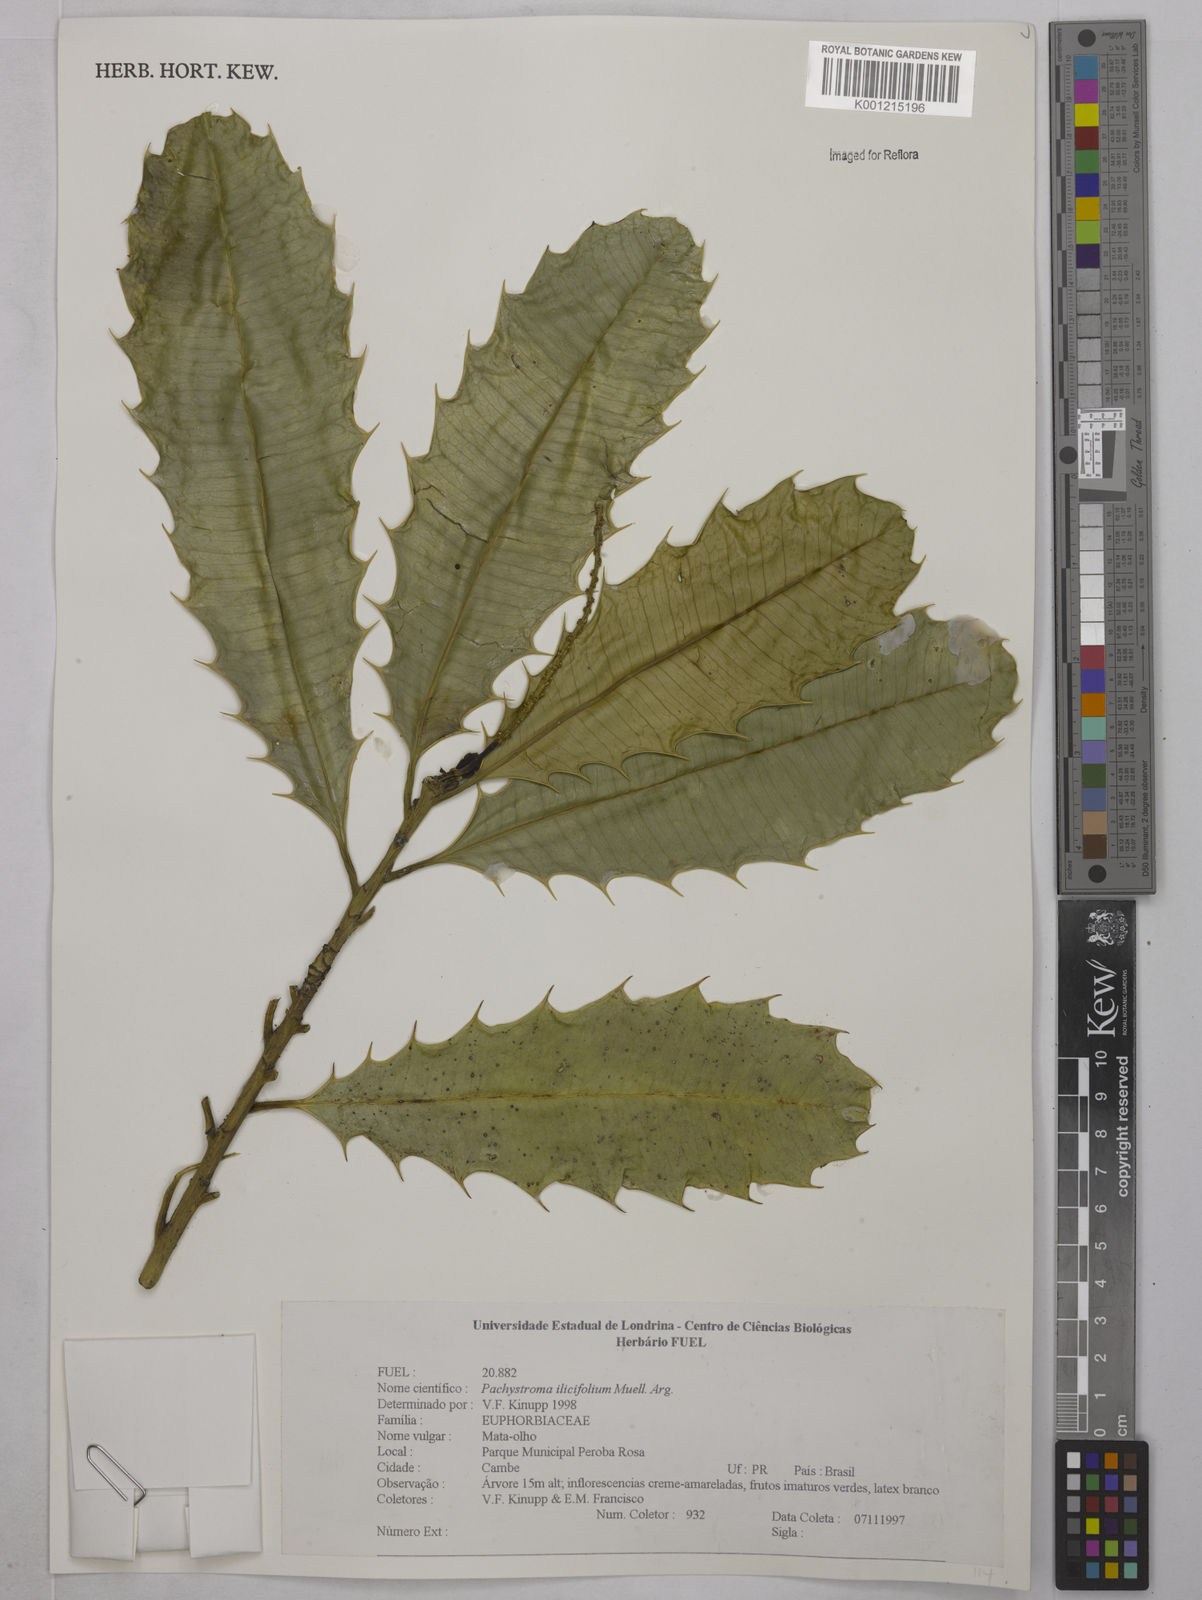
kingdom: Plantae
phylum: Tracheophyta
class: Magnoliopsida
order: Malpighiales
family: Euphorbiaceae
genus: Pachystroma
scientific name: Pachystroma longifolium
